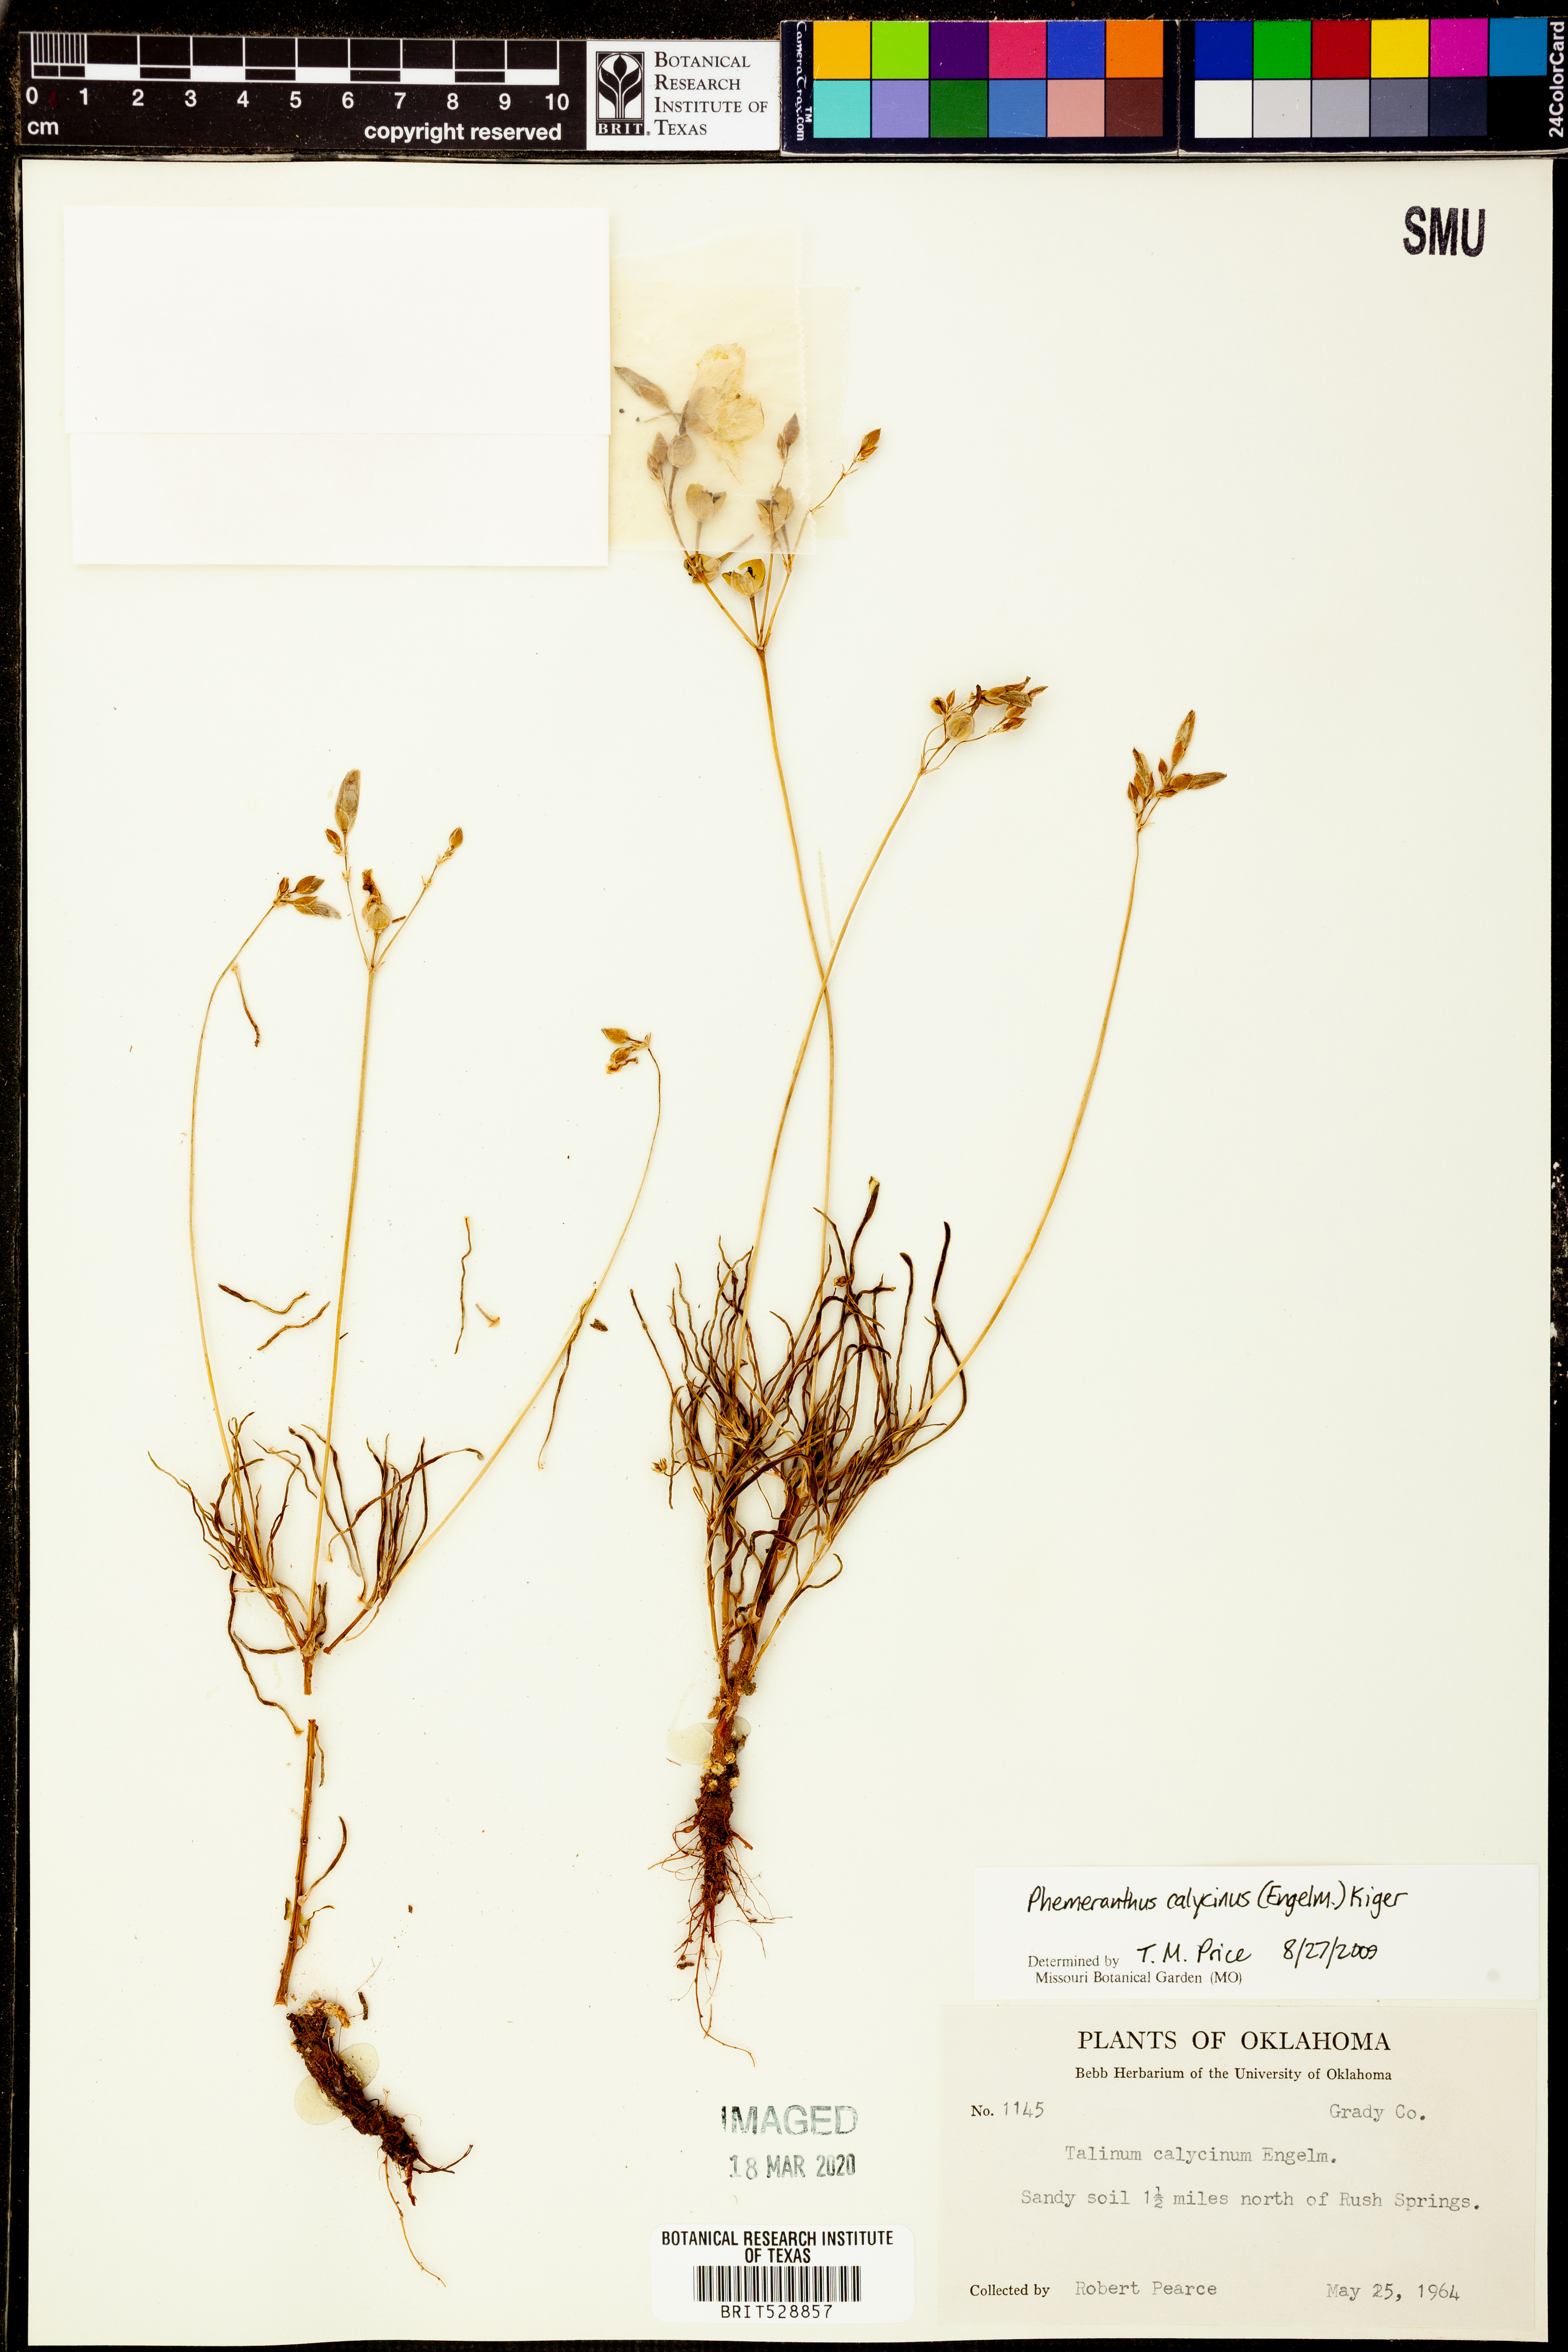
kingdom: Plantae
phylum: Tracheophyta
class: Magnoliopsida
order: Caryophyllales
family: Montiaceae
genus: Phemeranthus
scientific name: Phemeranthus calycinus
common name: Largeflower fameflower
